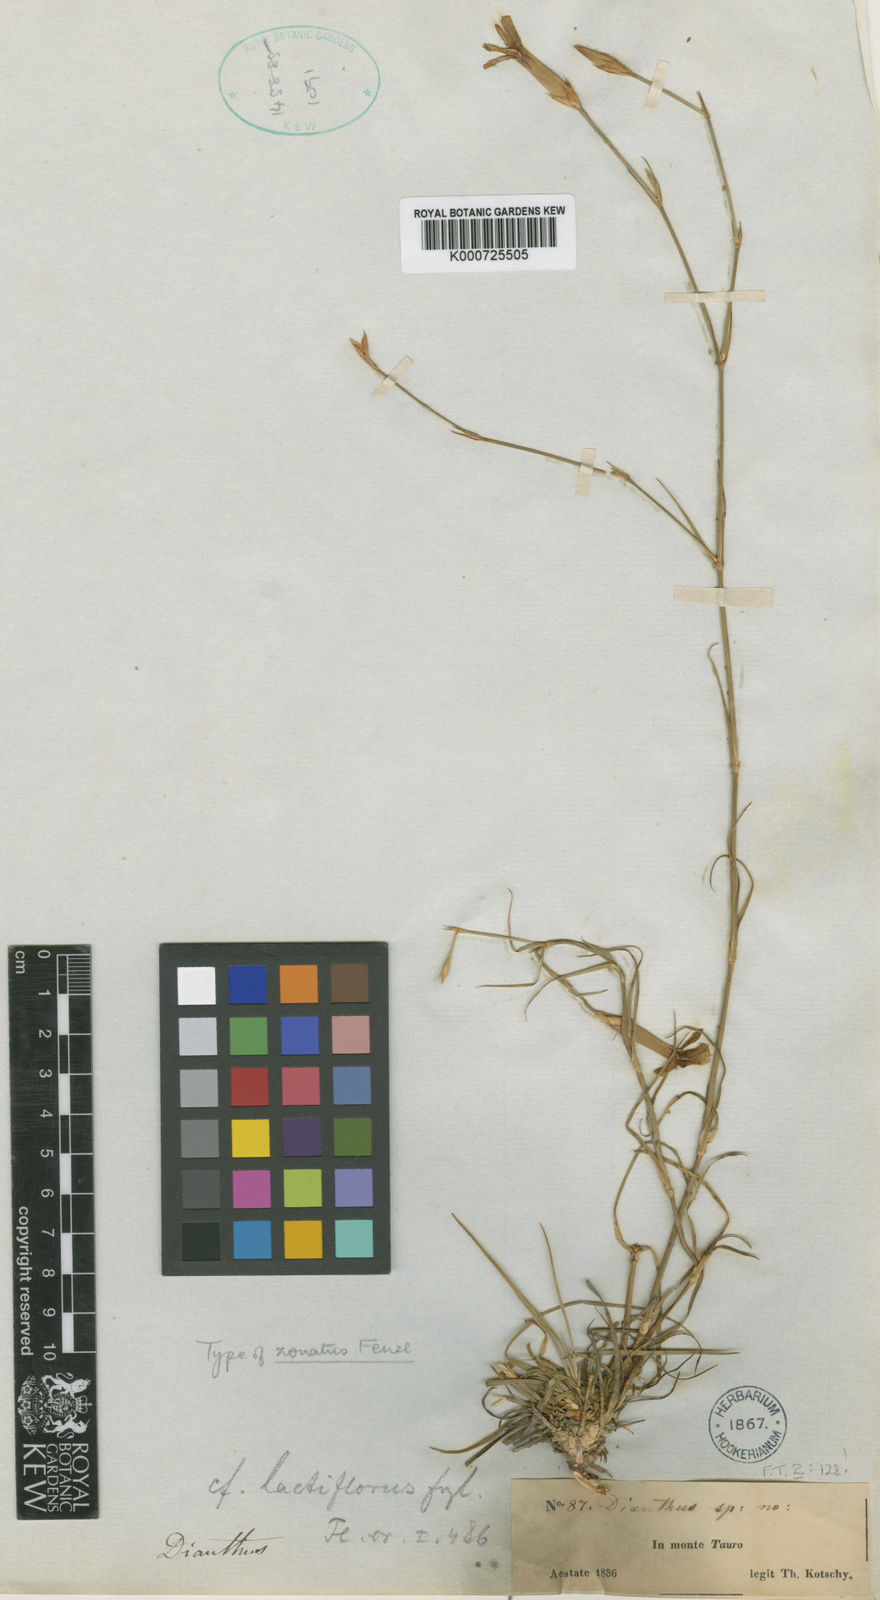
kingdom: Plantae
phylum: Tracheophyta
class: Magnoliopsida
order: Caryophyllales
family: Caryophyllaceae
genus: Dianthus
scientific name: Dianthus zonatus
